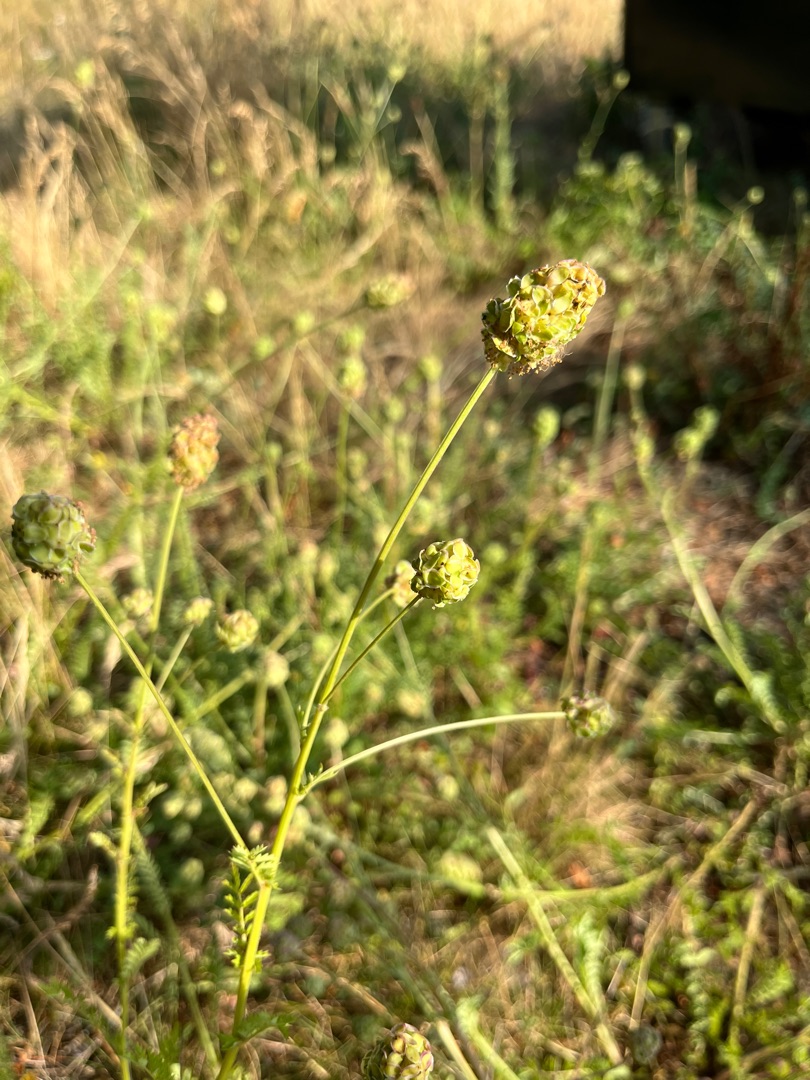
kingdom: Plantae
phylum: Tracheophyta
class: Magnoliopsida
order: Rosales
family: Rosaceae
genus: Poterium
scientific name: Poterium sanguisorba
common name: Bibernelle
